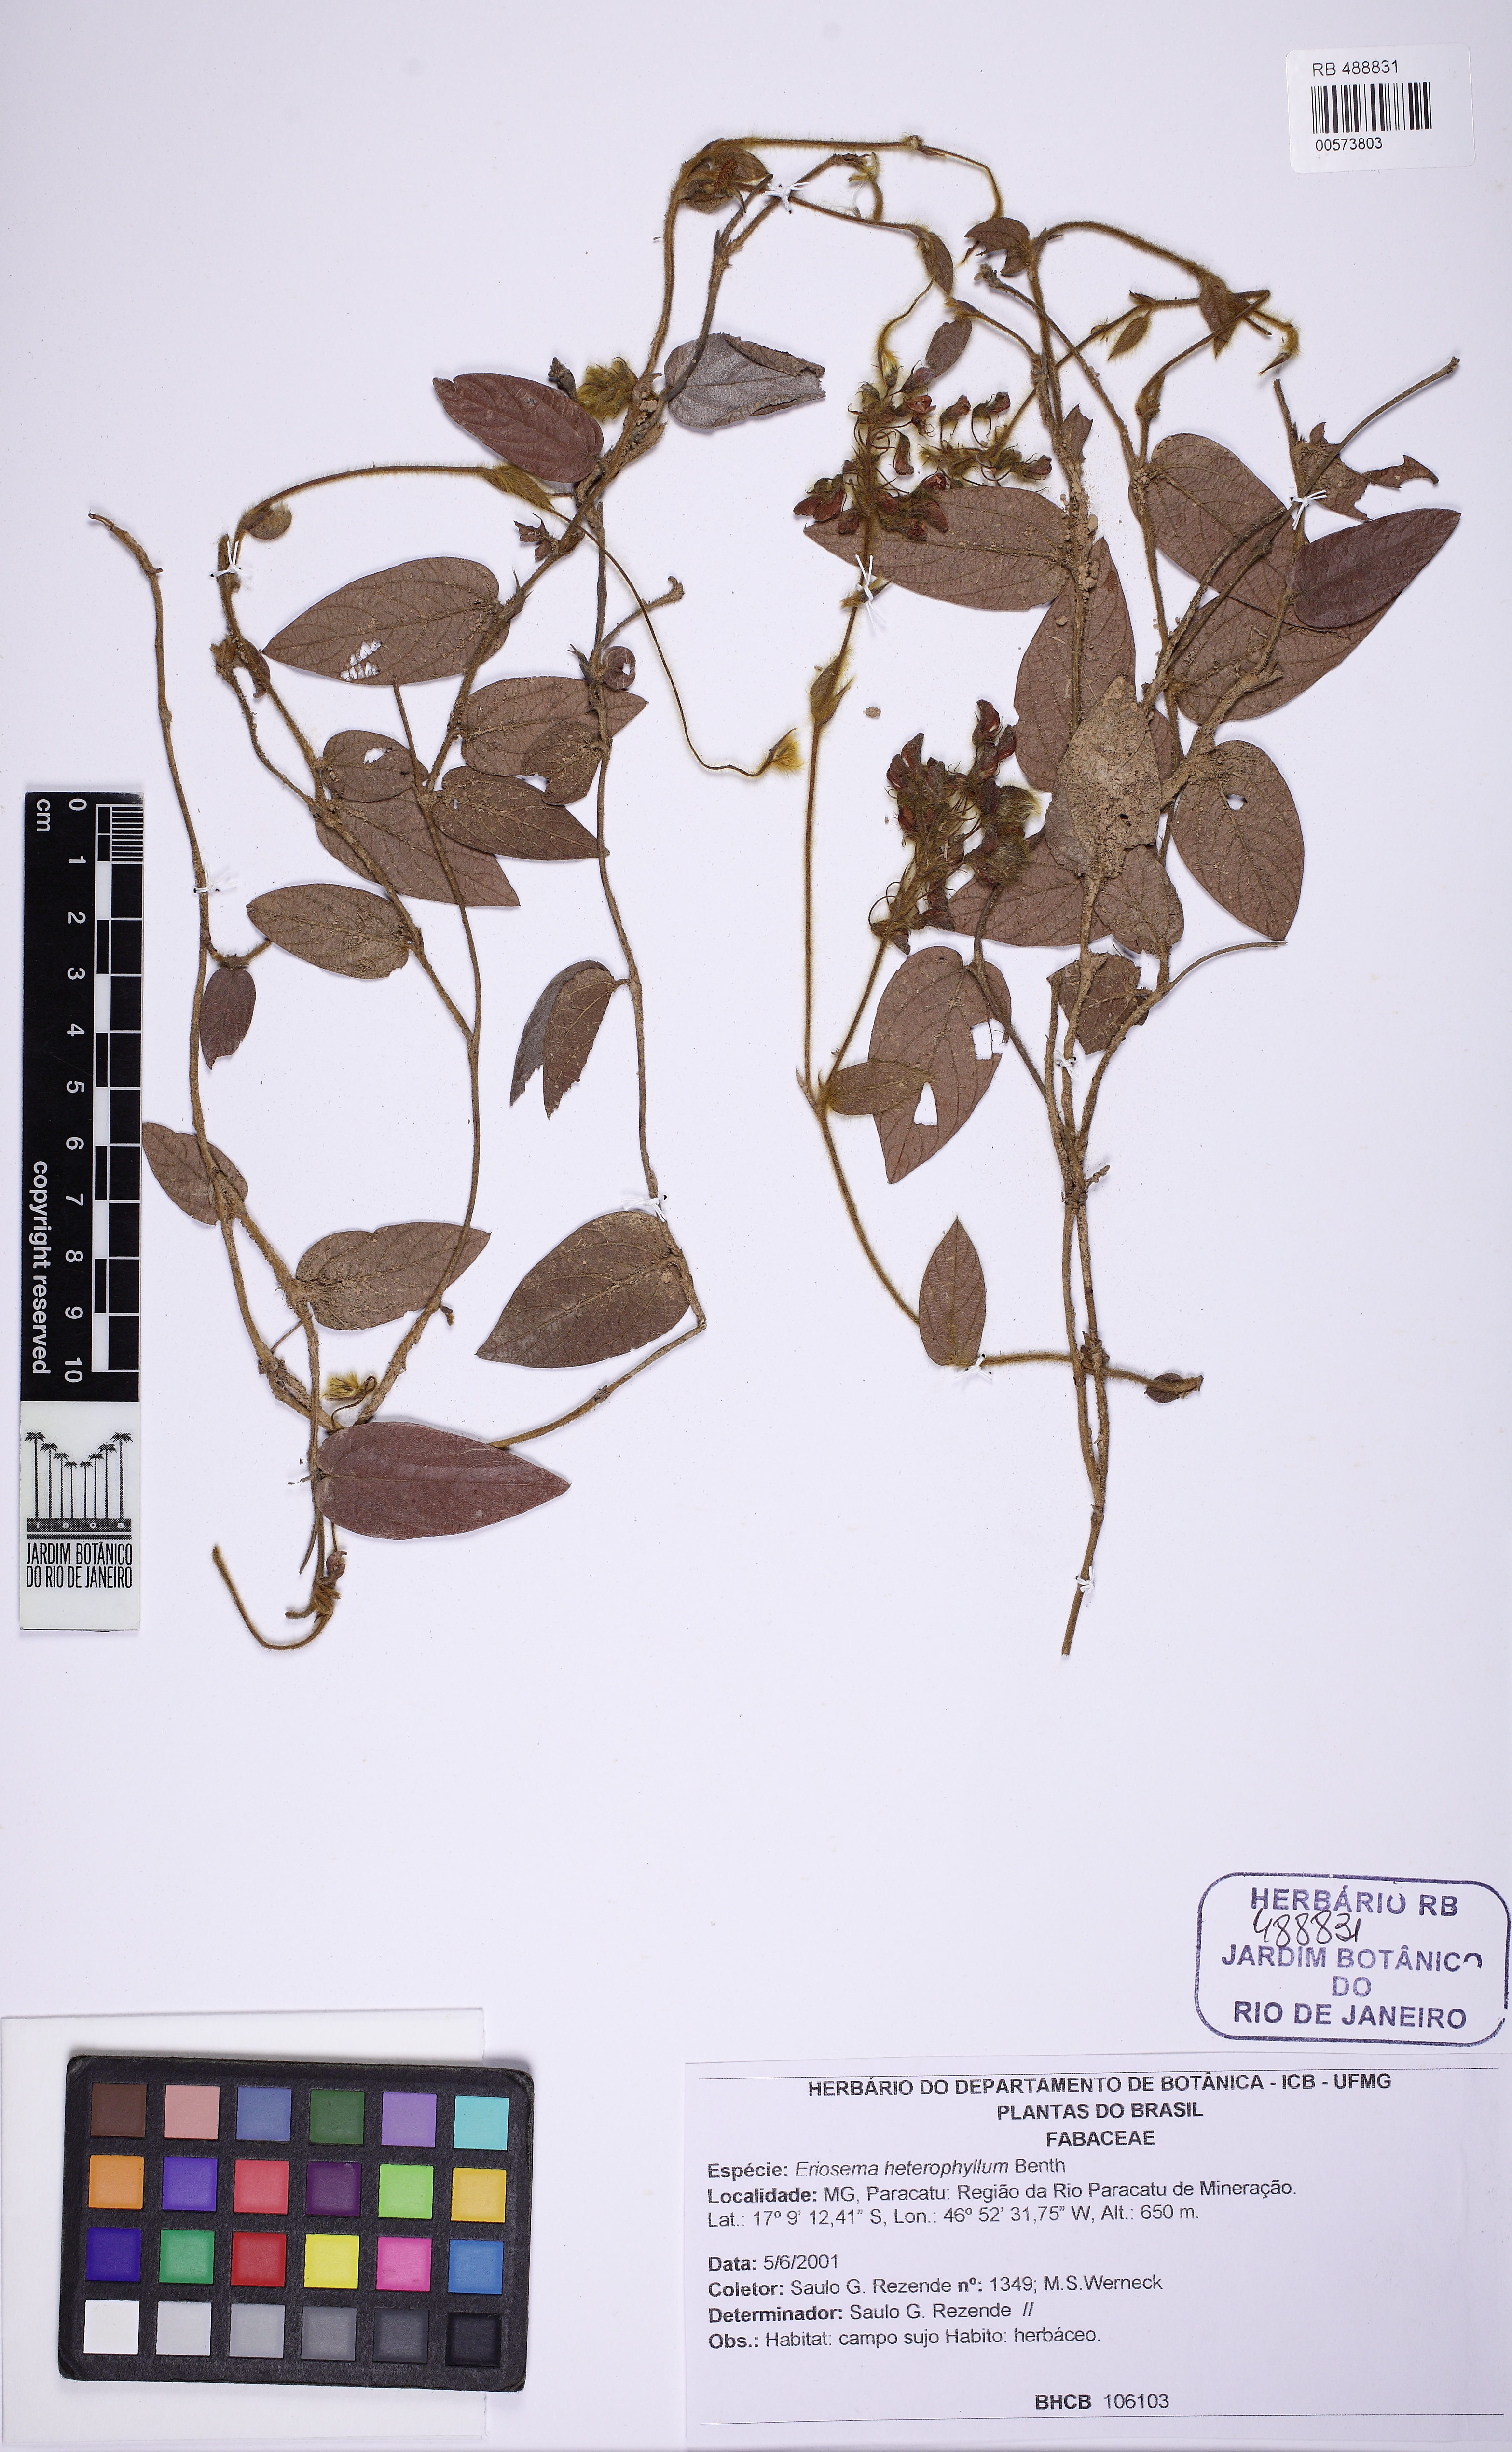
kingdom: Plantae
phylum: Tracheophyta
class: Magnoliopsida
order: Fabales
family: Fabaceae
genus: Eriosema
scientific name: Eriosema heterophyllum
